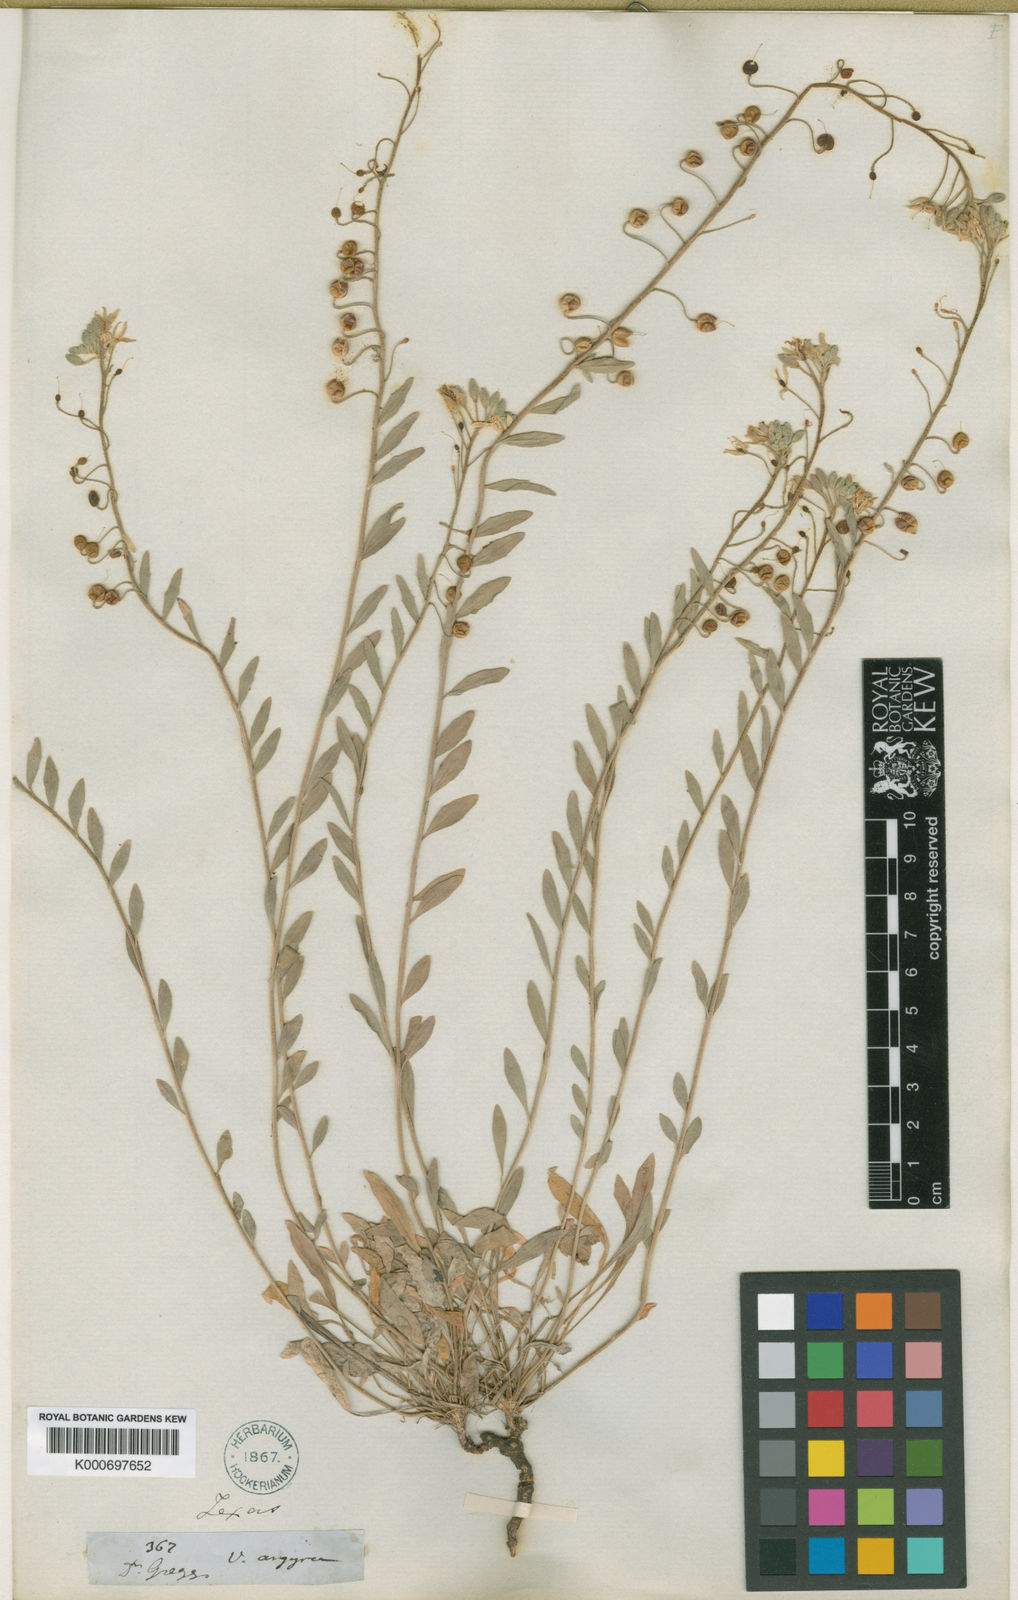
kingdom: Plantae
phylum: Tracheophyta
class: Magnoliopsida
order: Brassicales
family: Brassicaceae
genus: Physaria
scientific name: Physaria densiflora
